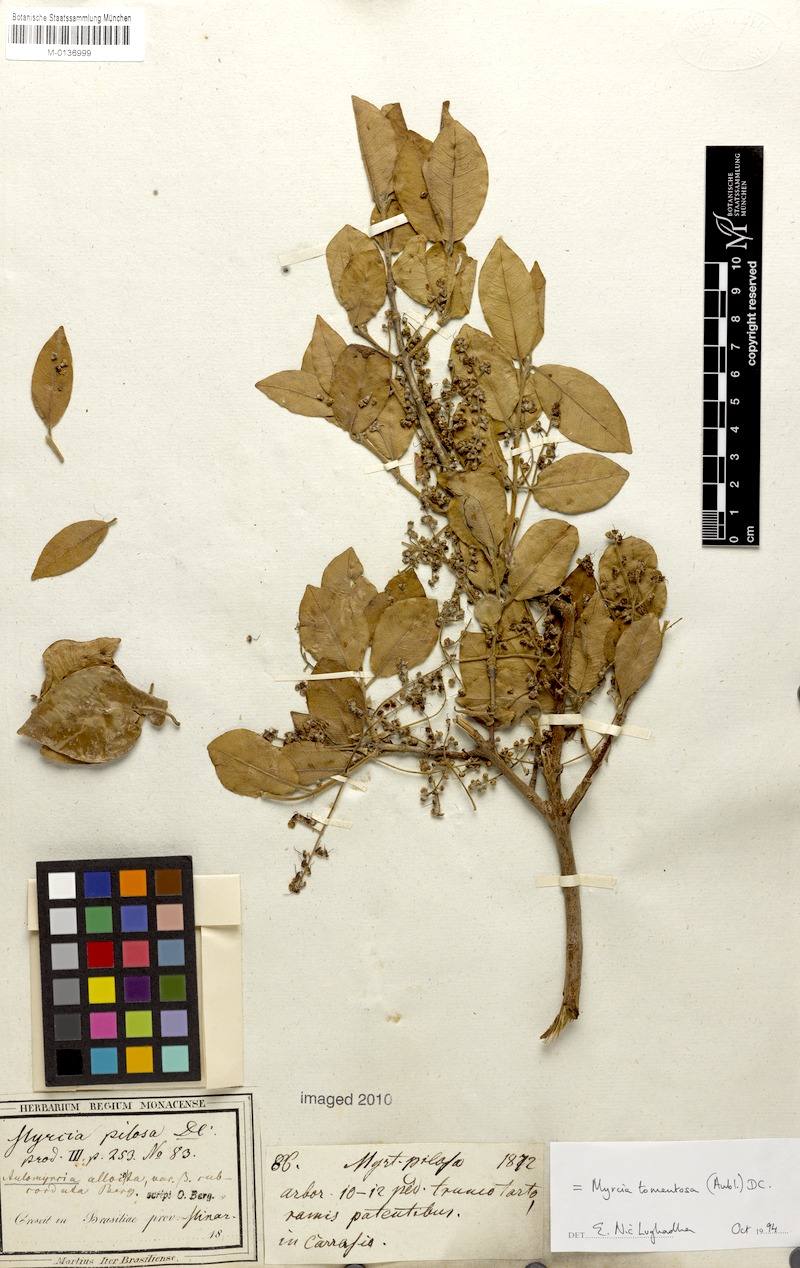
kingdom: Plantae
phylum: Tracheophyta
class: Magnoliopsida
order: Myrtales
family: Myrtaceae
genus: Myrcia
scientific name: Myrcia tomentosa
